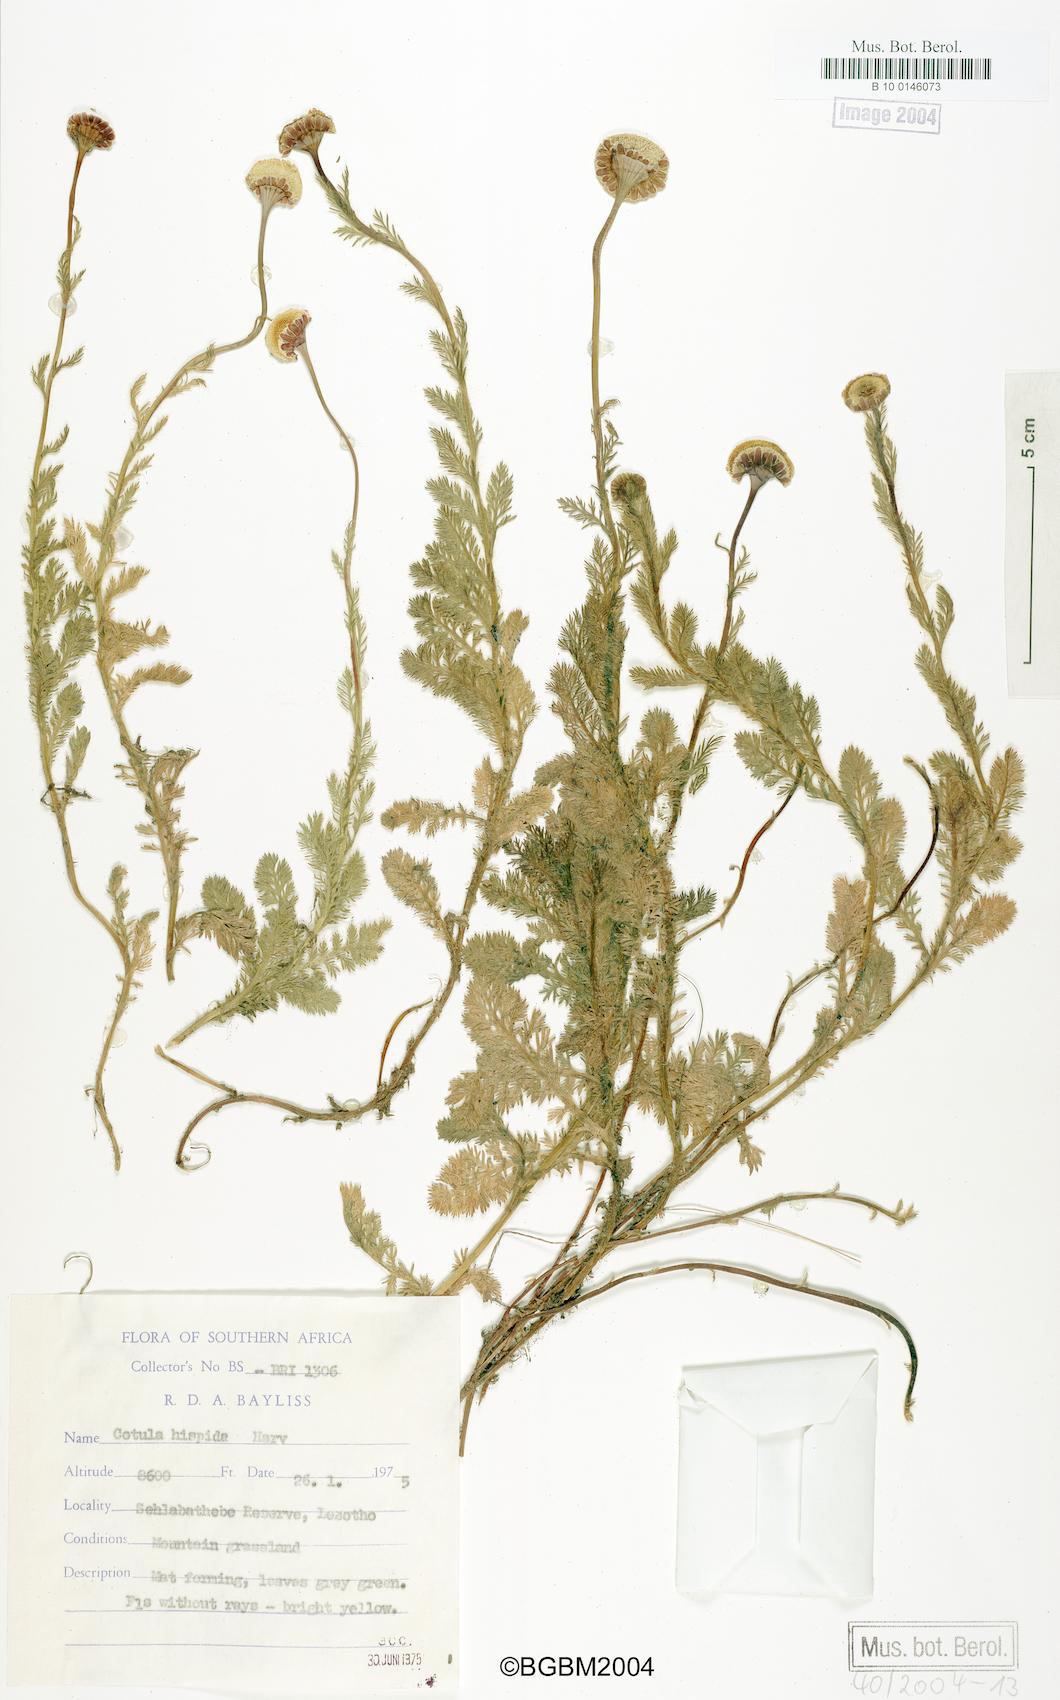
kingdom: Plantae
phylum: Tracheophyta
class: Magnoliopsida
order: Asterales
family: Asteraceae
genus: Cotula
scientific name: Cotula hispida
